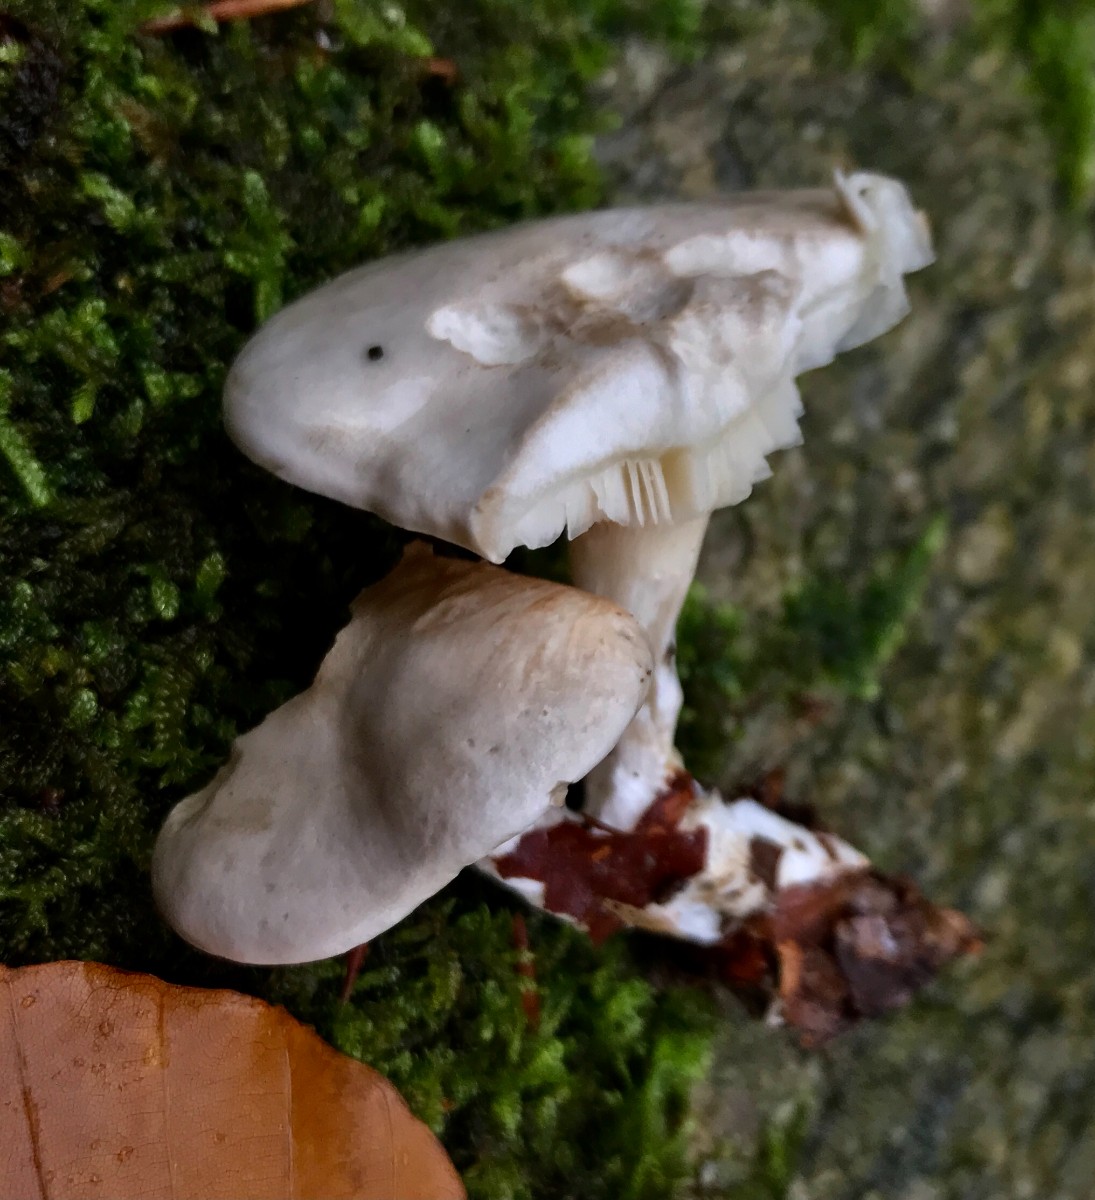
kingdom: Fungi
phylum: Basidiomycota
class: Agaricomycetes
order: Agaricales
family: Entolomataceae
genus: Clitopilus
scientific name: Clitopilus prunulus
